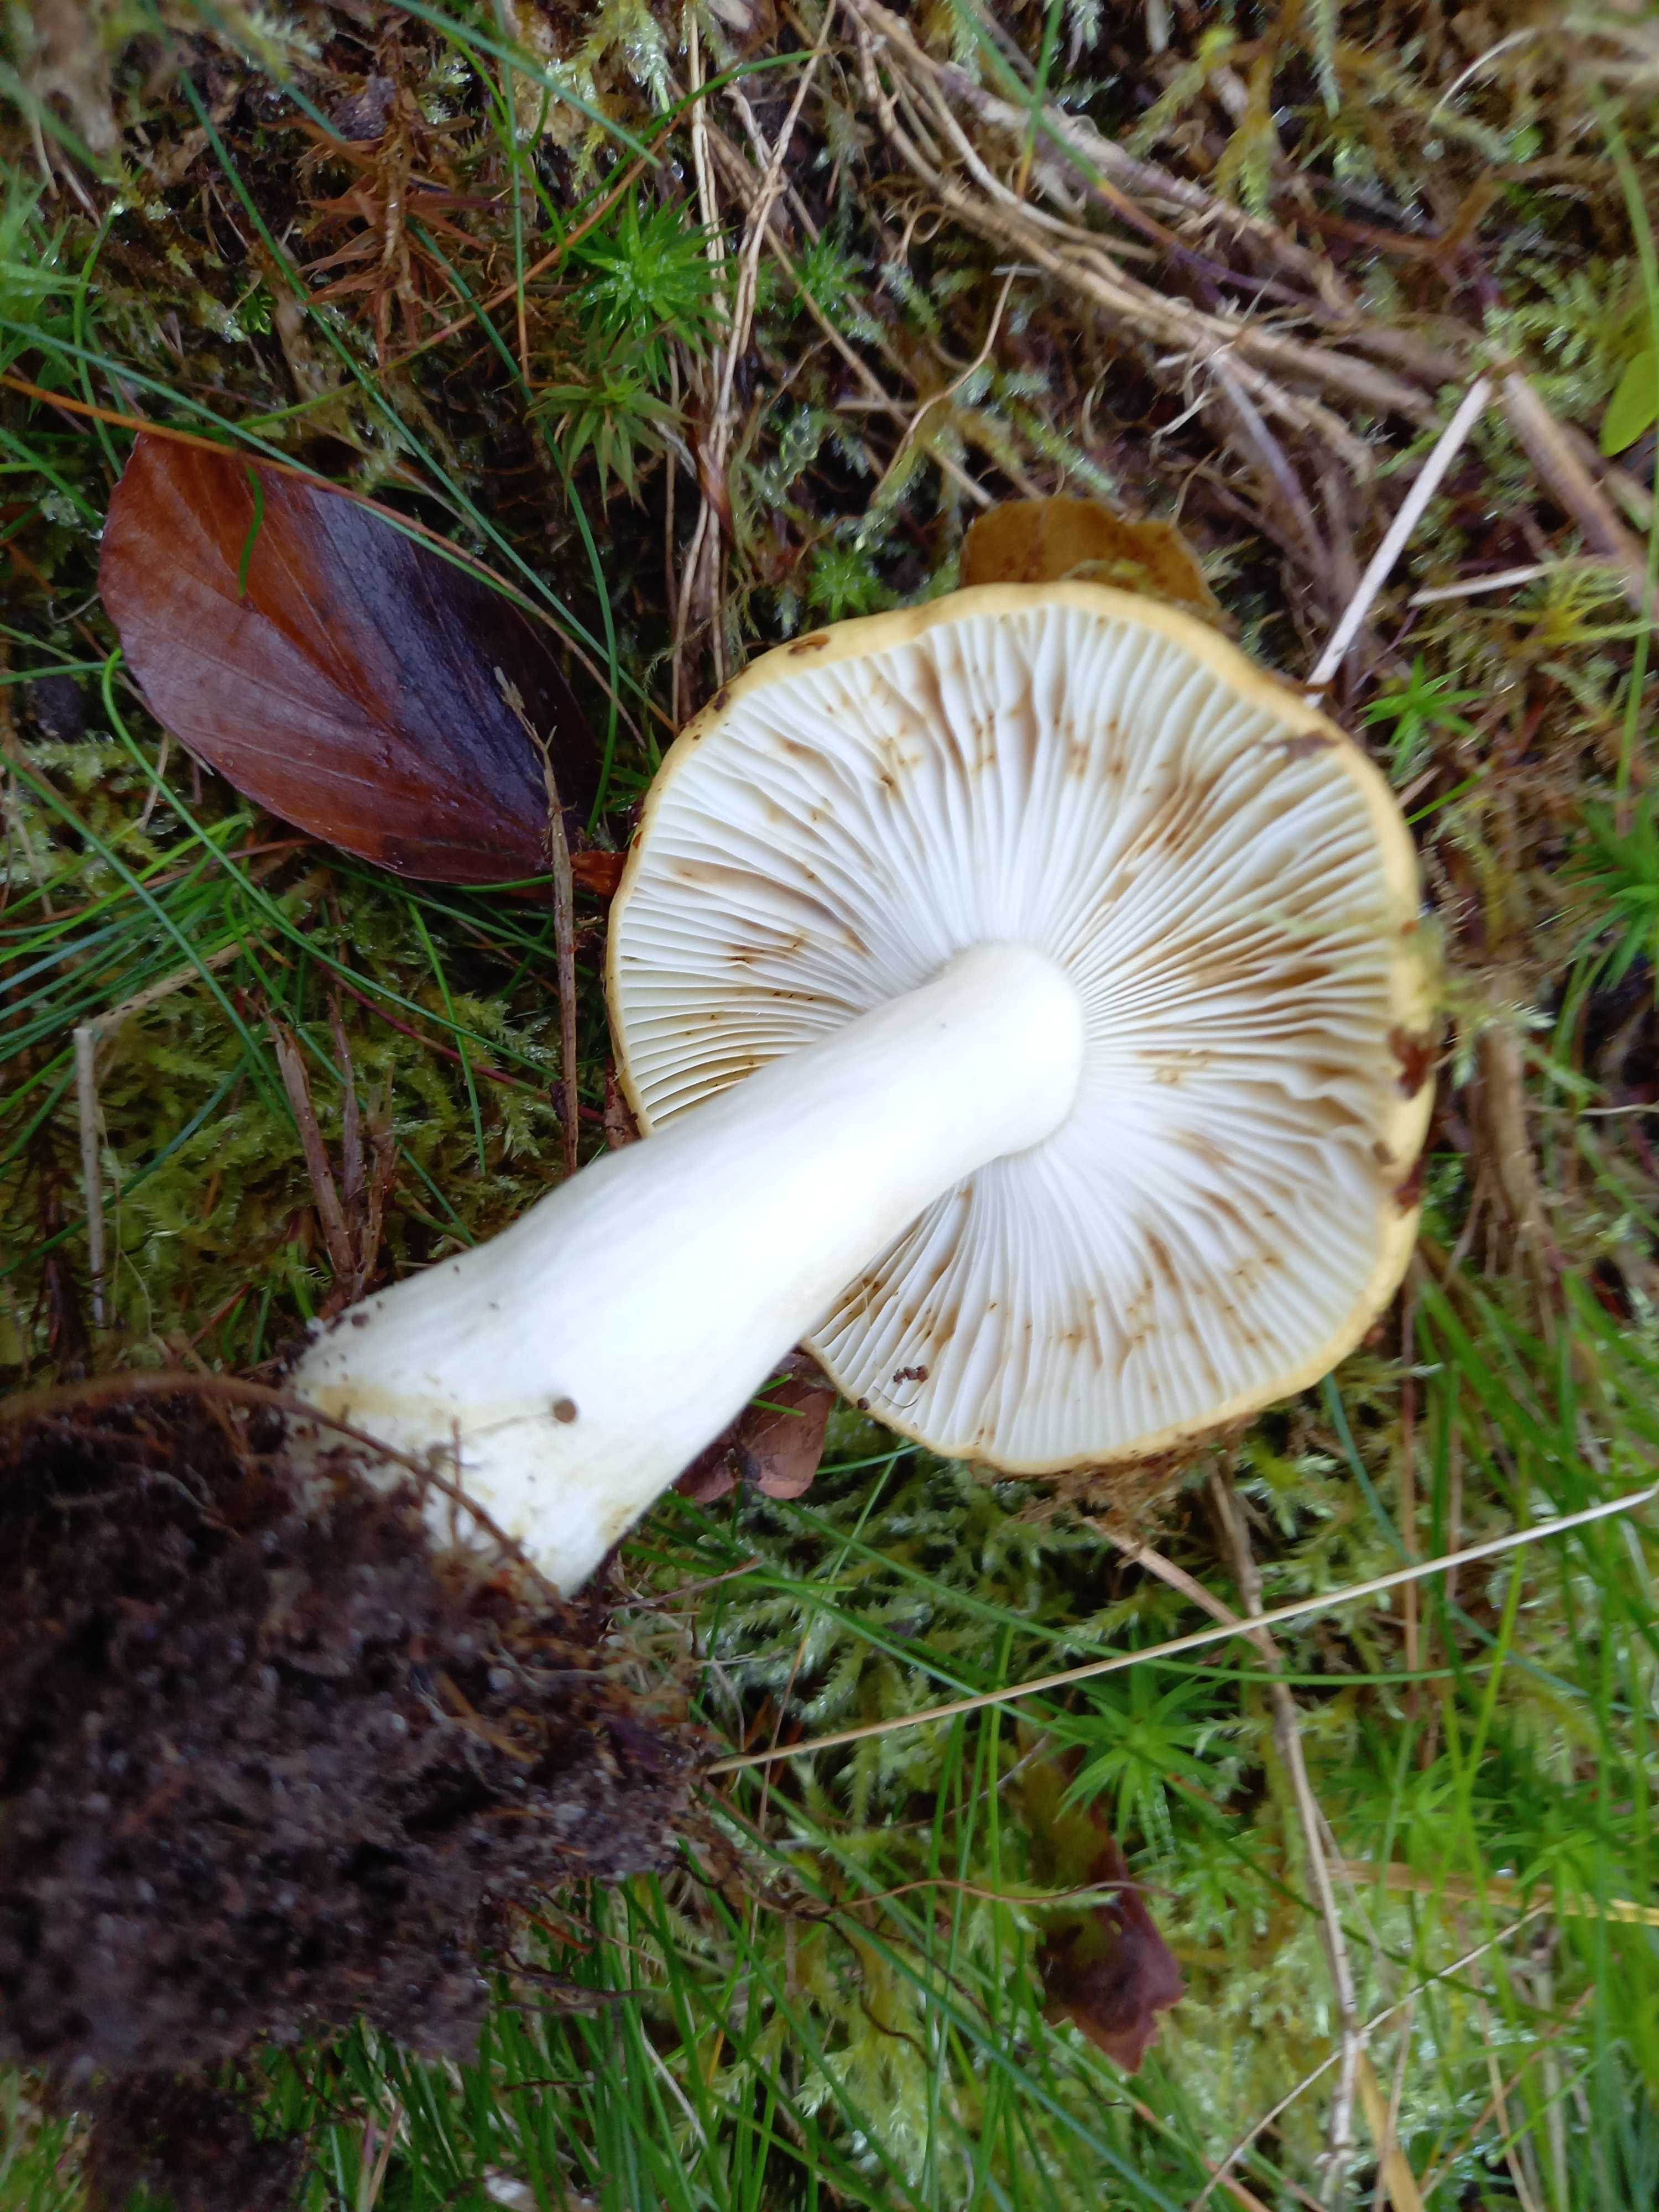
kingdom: Fungi
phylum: Basidiomycota
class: Agaricomycetes
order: Russulales
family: Russulaceae
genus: Russula
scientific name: Russula ochroleuca
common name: okkergul skørhat
